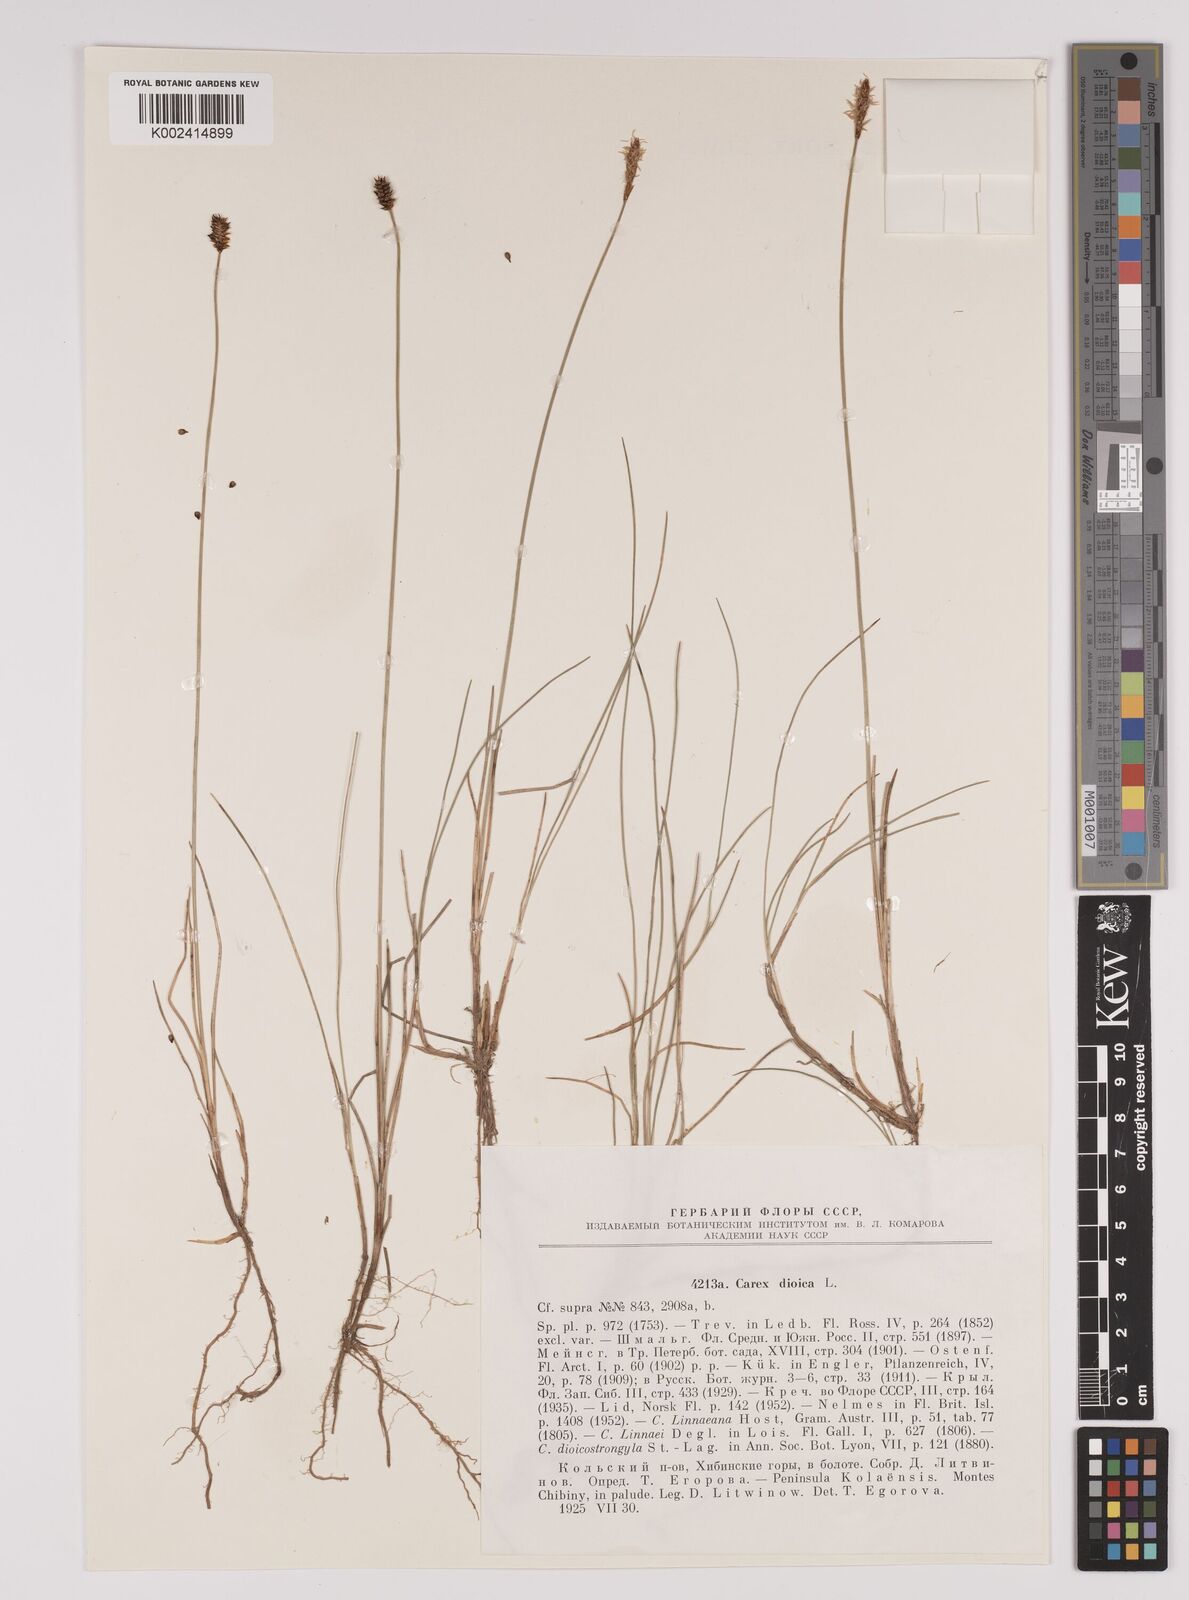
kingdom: Plantae
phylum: Tracheophyta
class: Liliopsida
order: Poales
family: Cyperaceae
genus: Carex
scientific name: Carex dioica
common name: Dioecious sedge
